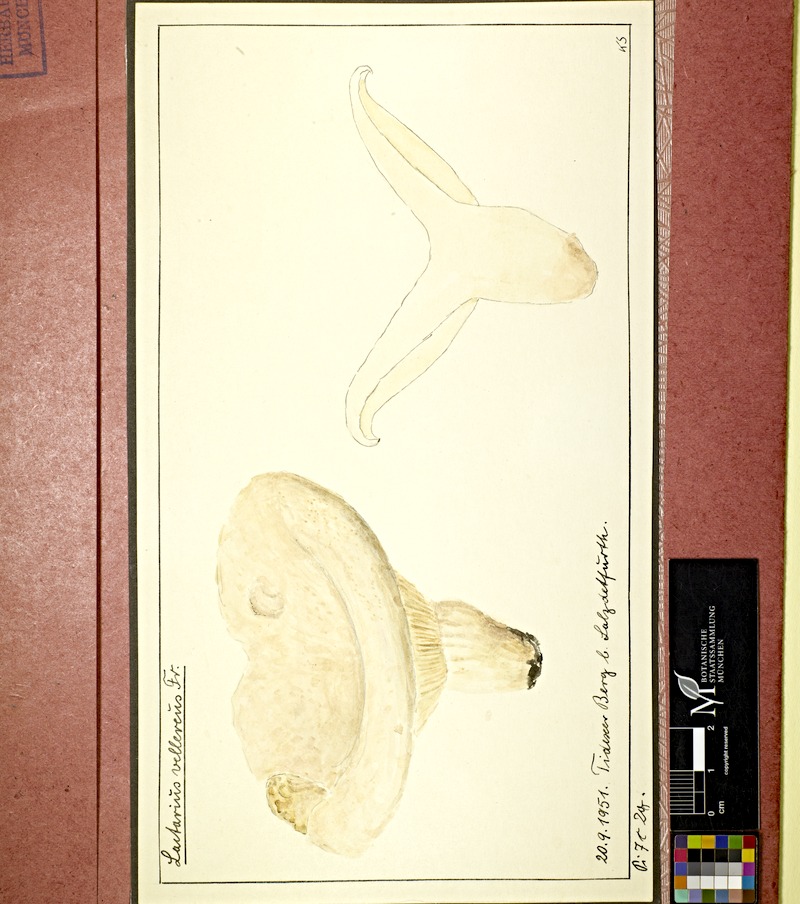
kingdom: Fungi
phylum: Basidiomycota
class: Agaricomycetes
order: Russulales
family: Russulaceae
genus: Lactifluus
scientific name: Lactifluus vellereus
